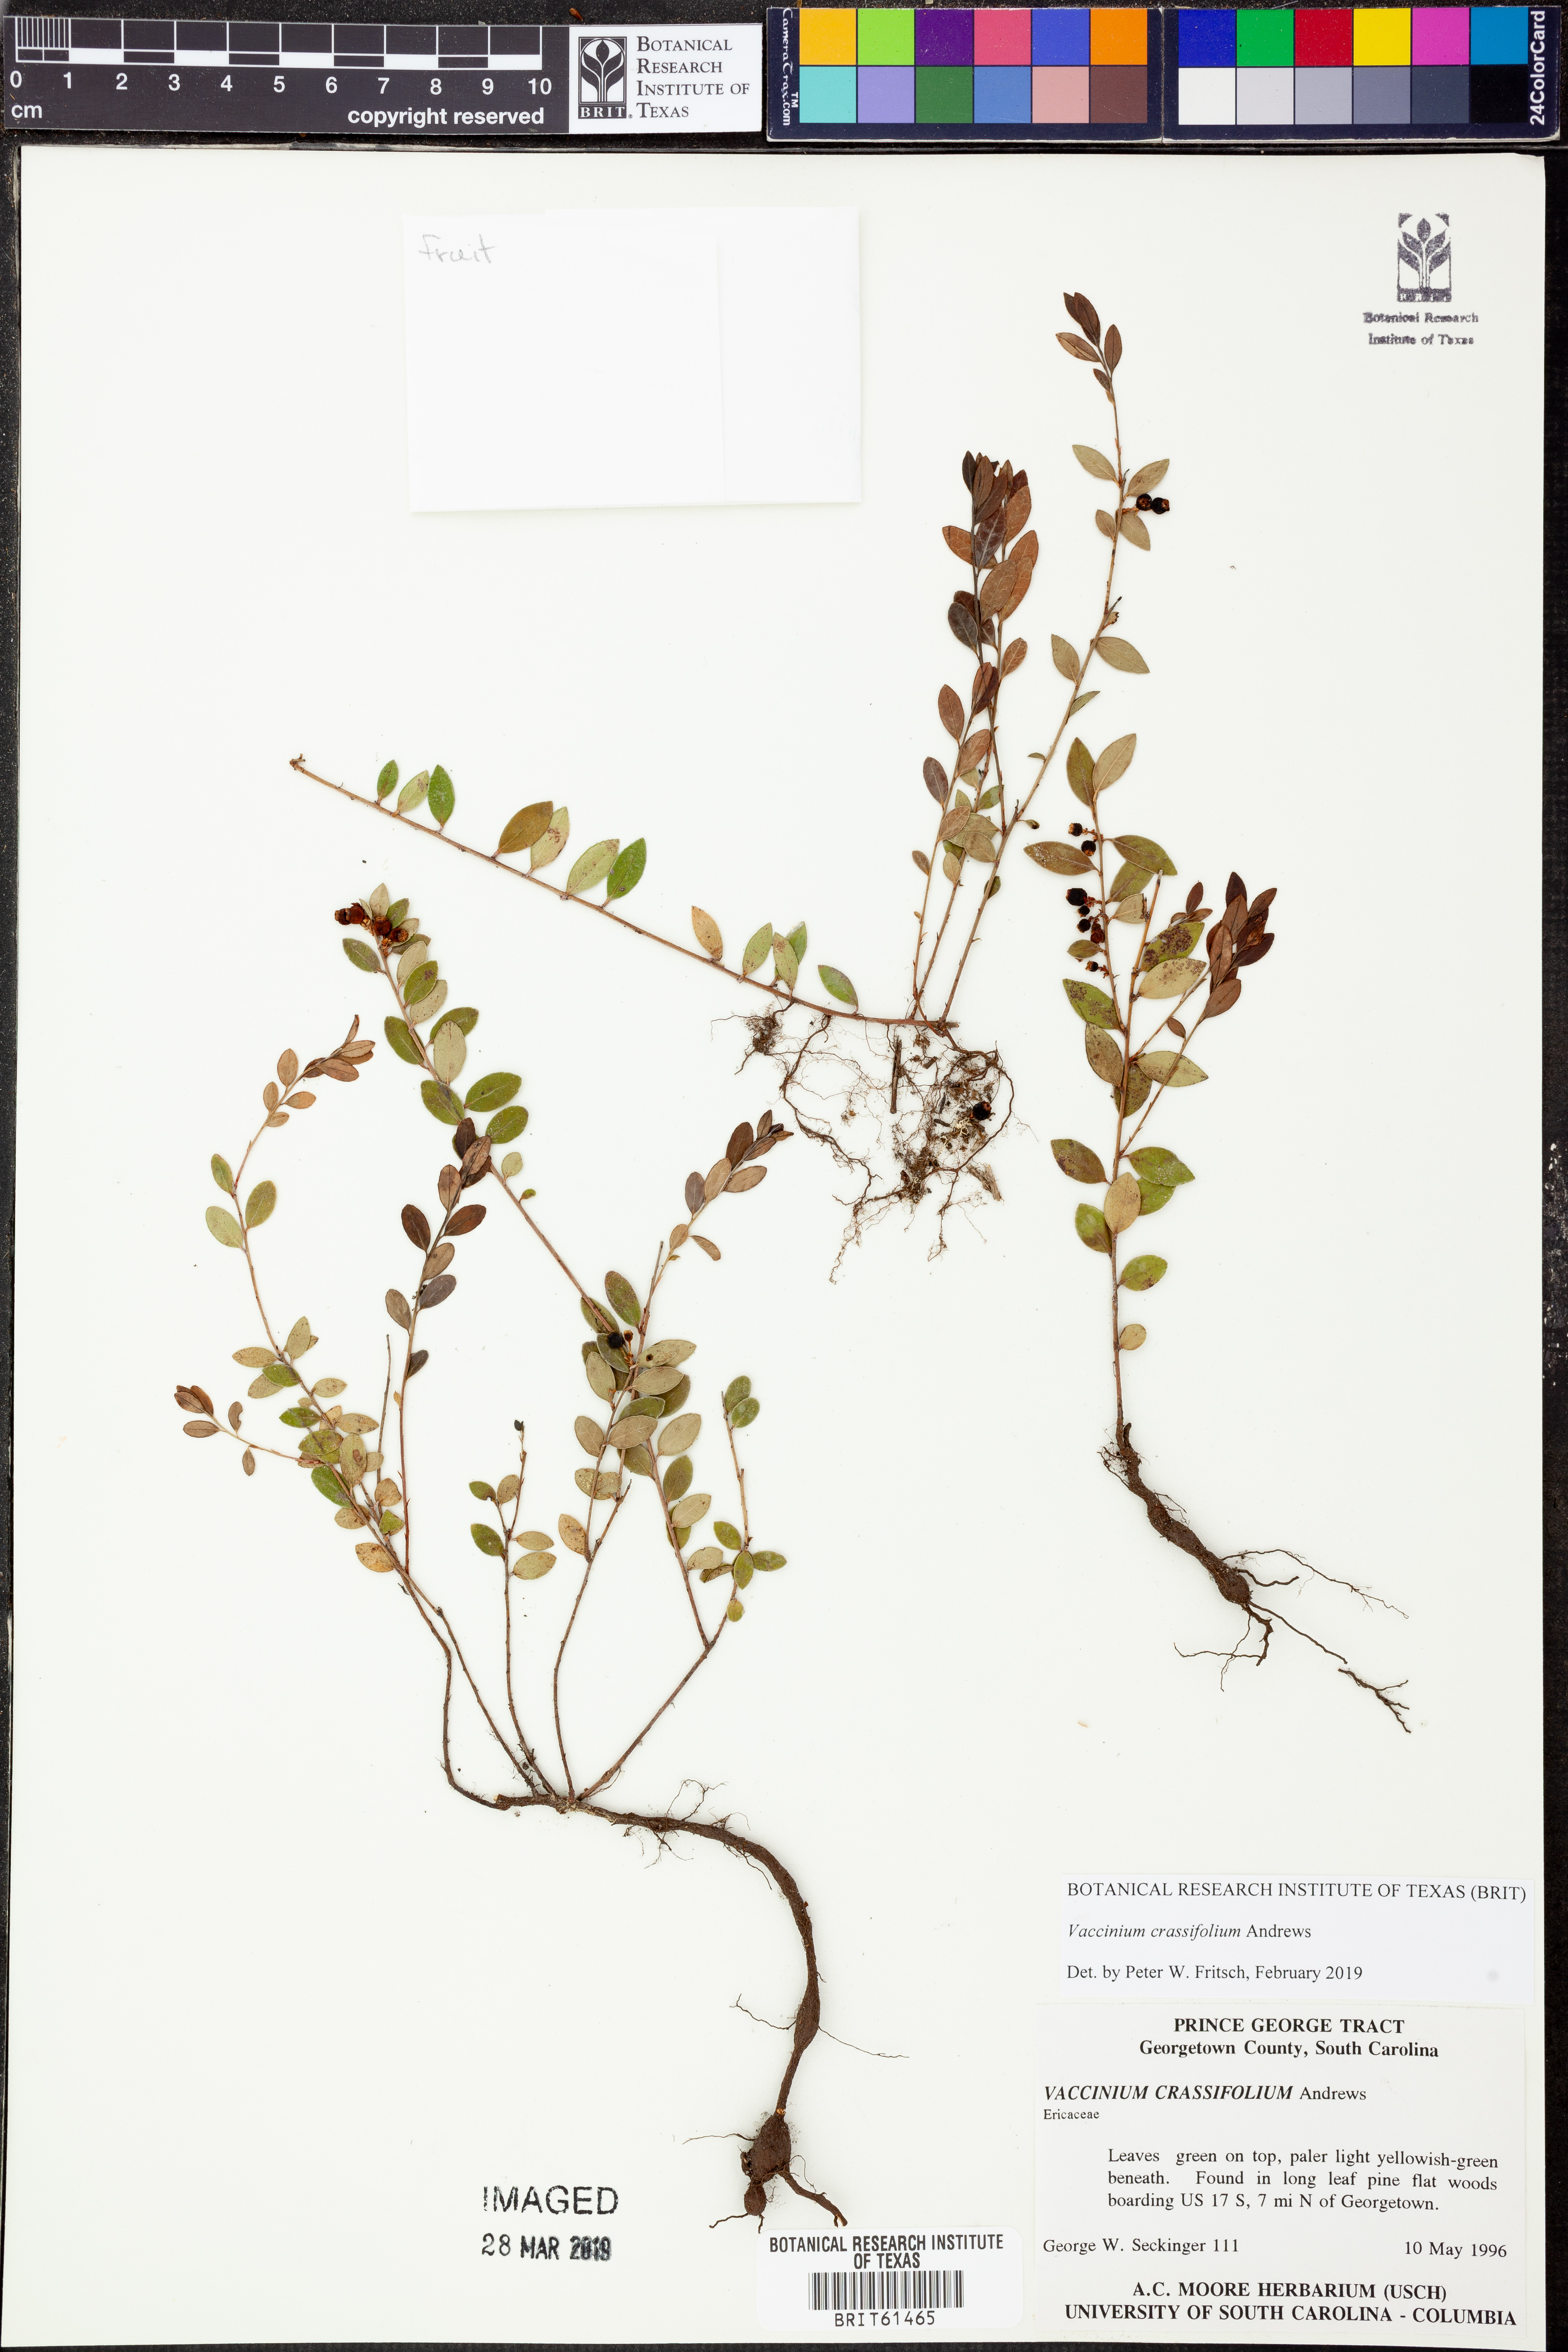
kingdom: Plantae
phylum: Tracheophyta
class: Magnoliopsida
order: Ericales
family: Ericaceae
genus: Vaccinium
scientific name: Vaccinium crassifolium
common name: Creeping blueberry
